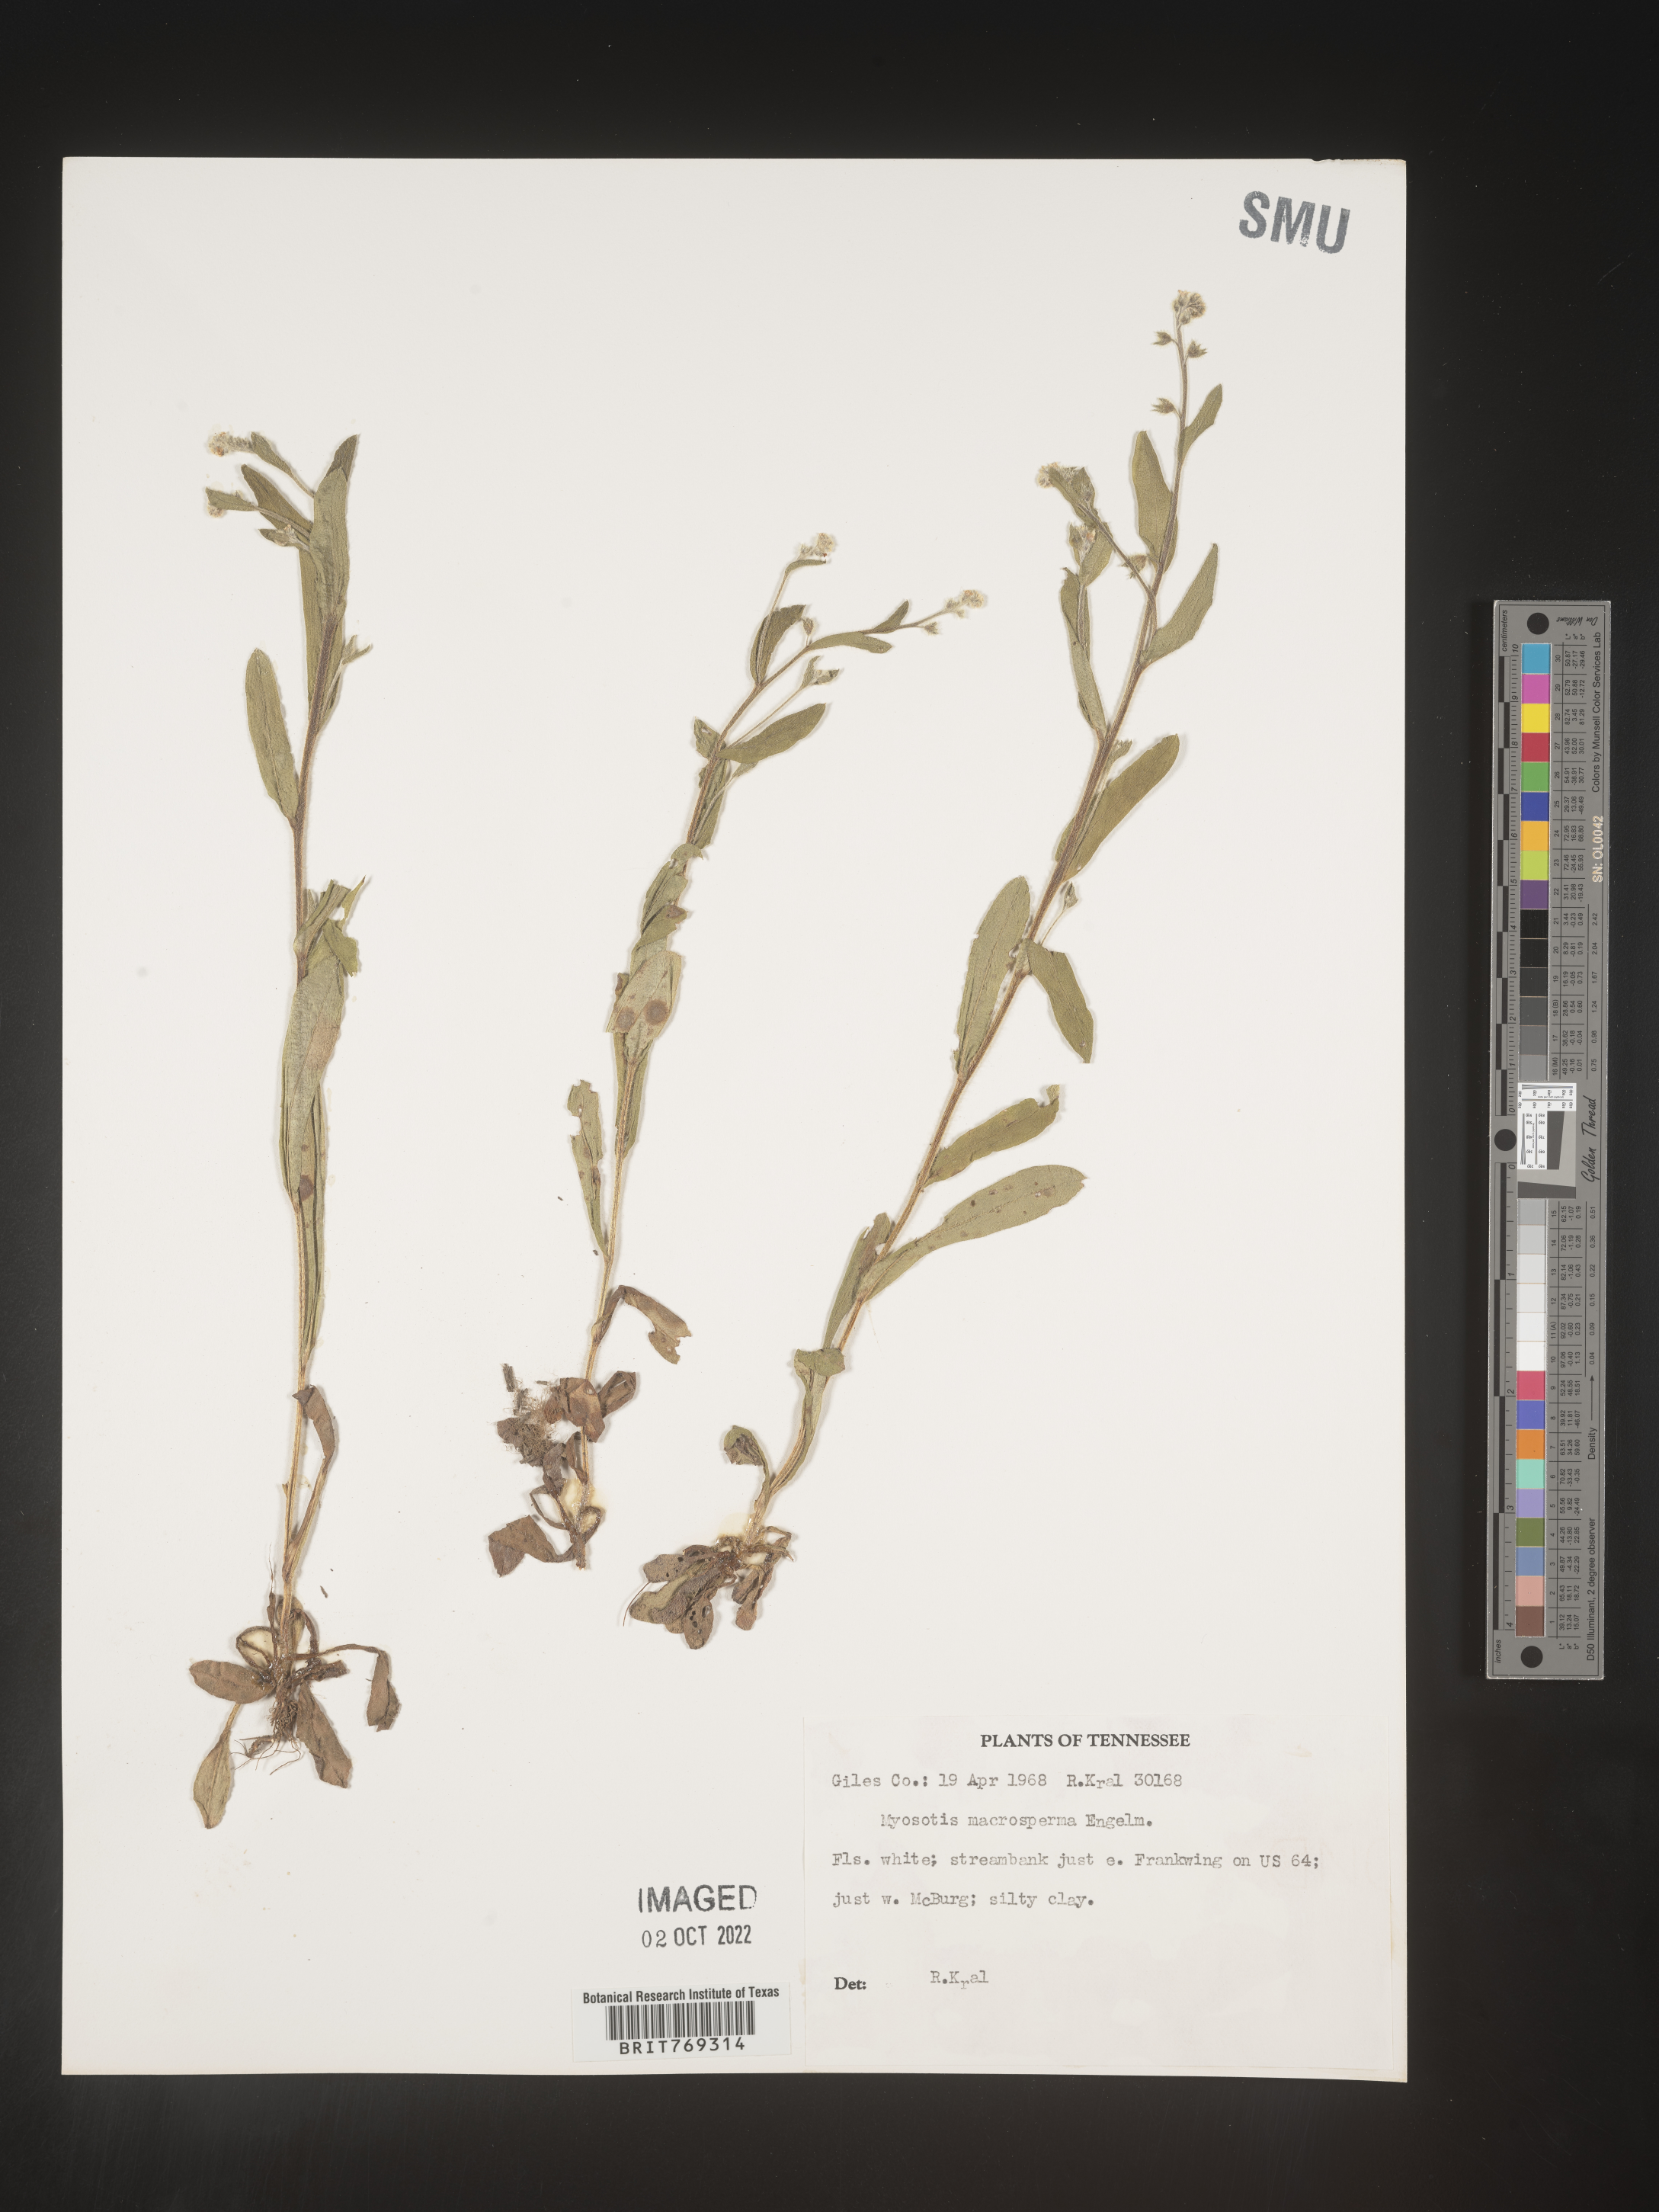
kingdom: Plantae
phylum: Tracheophyta
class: Magnoliopsida
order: Boraginales
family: Boraginaceae
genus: Myosotis
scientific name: Myosotis macrosperma
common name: Large-seed forget-me-not
